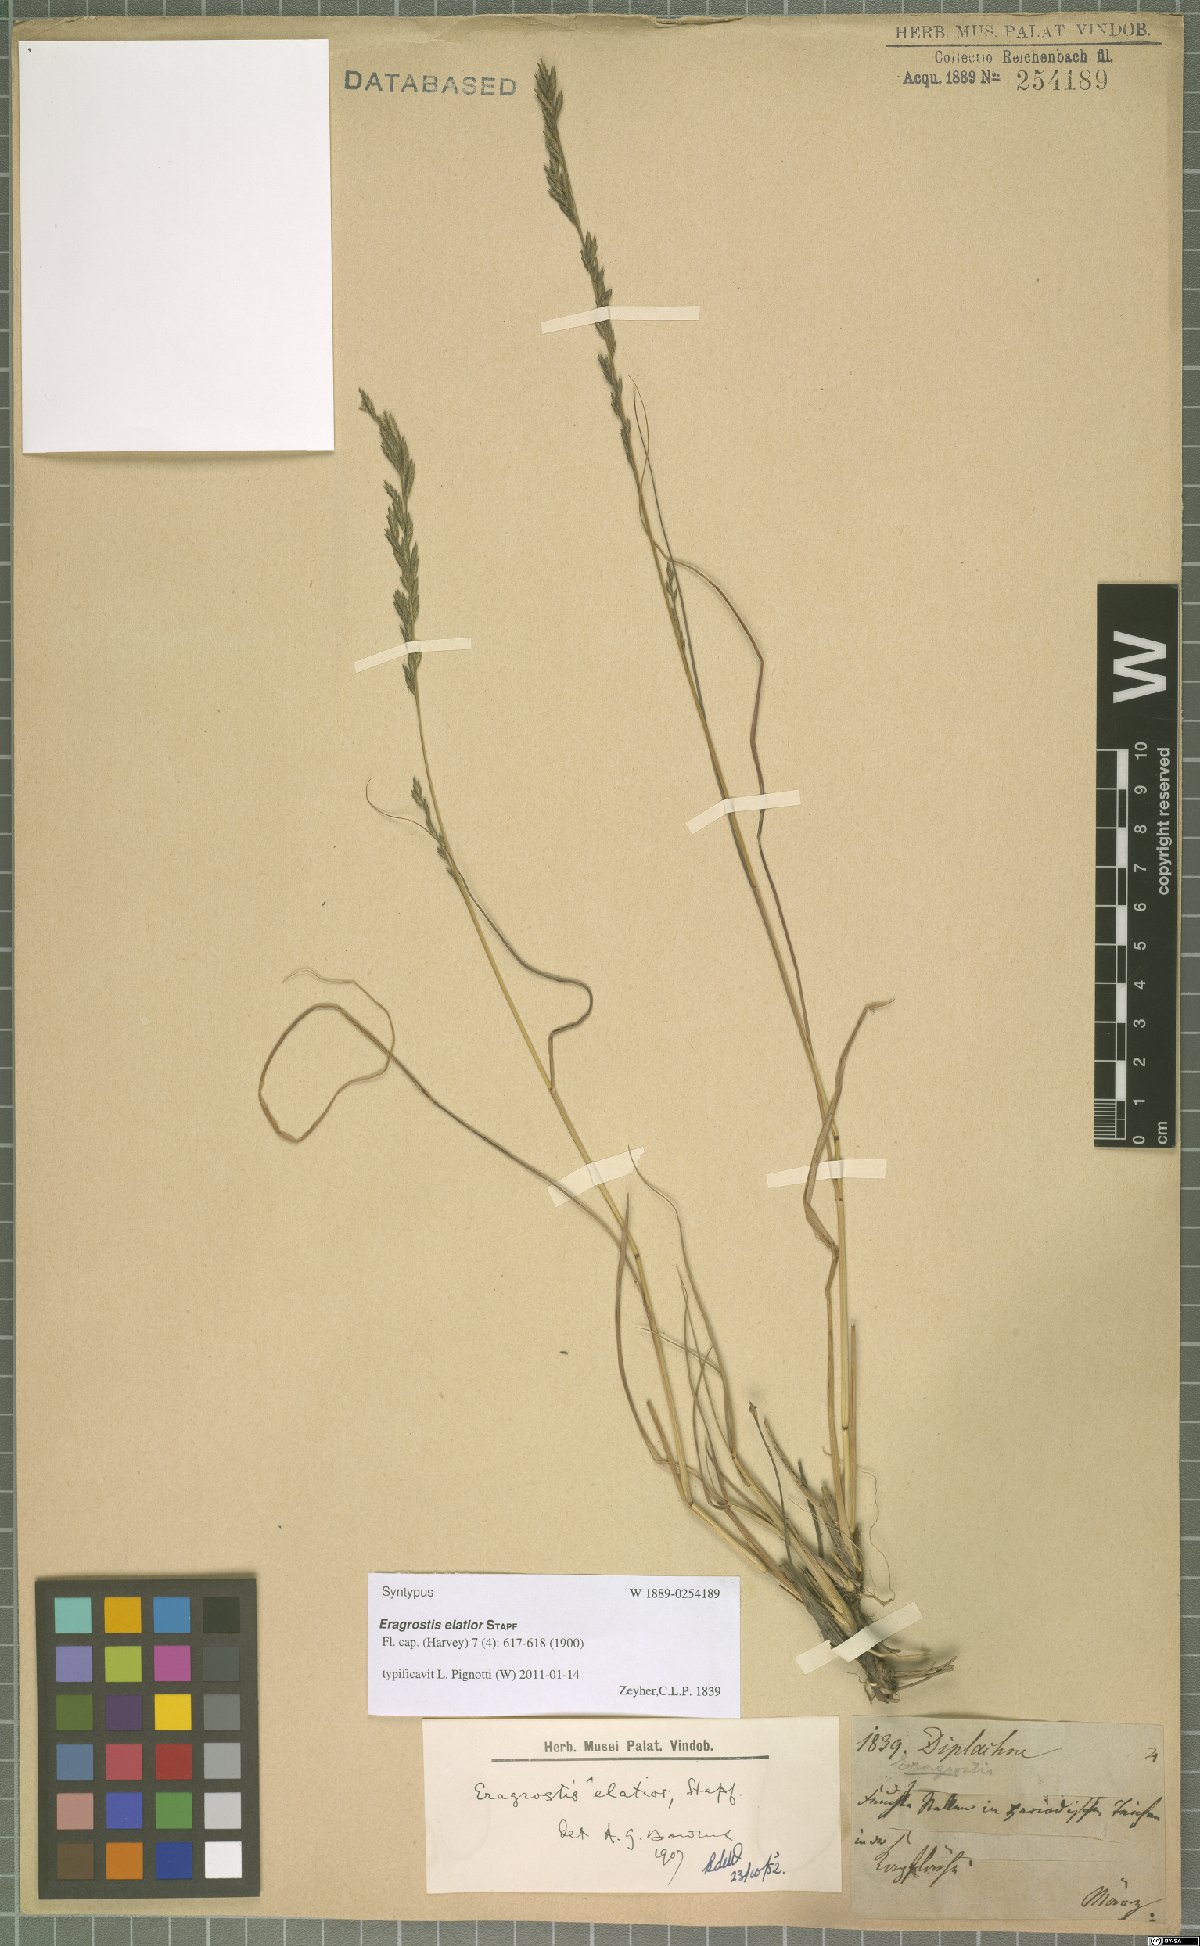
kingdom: Plantae
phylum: Tracheophyta
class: Liliopsida
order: Poales
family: Poaceae
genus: Eragrostis
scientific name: Eragrostis elatior
